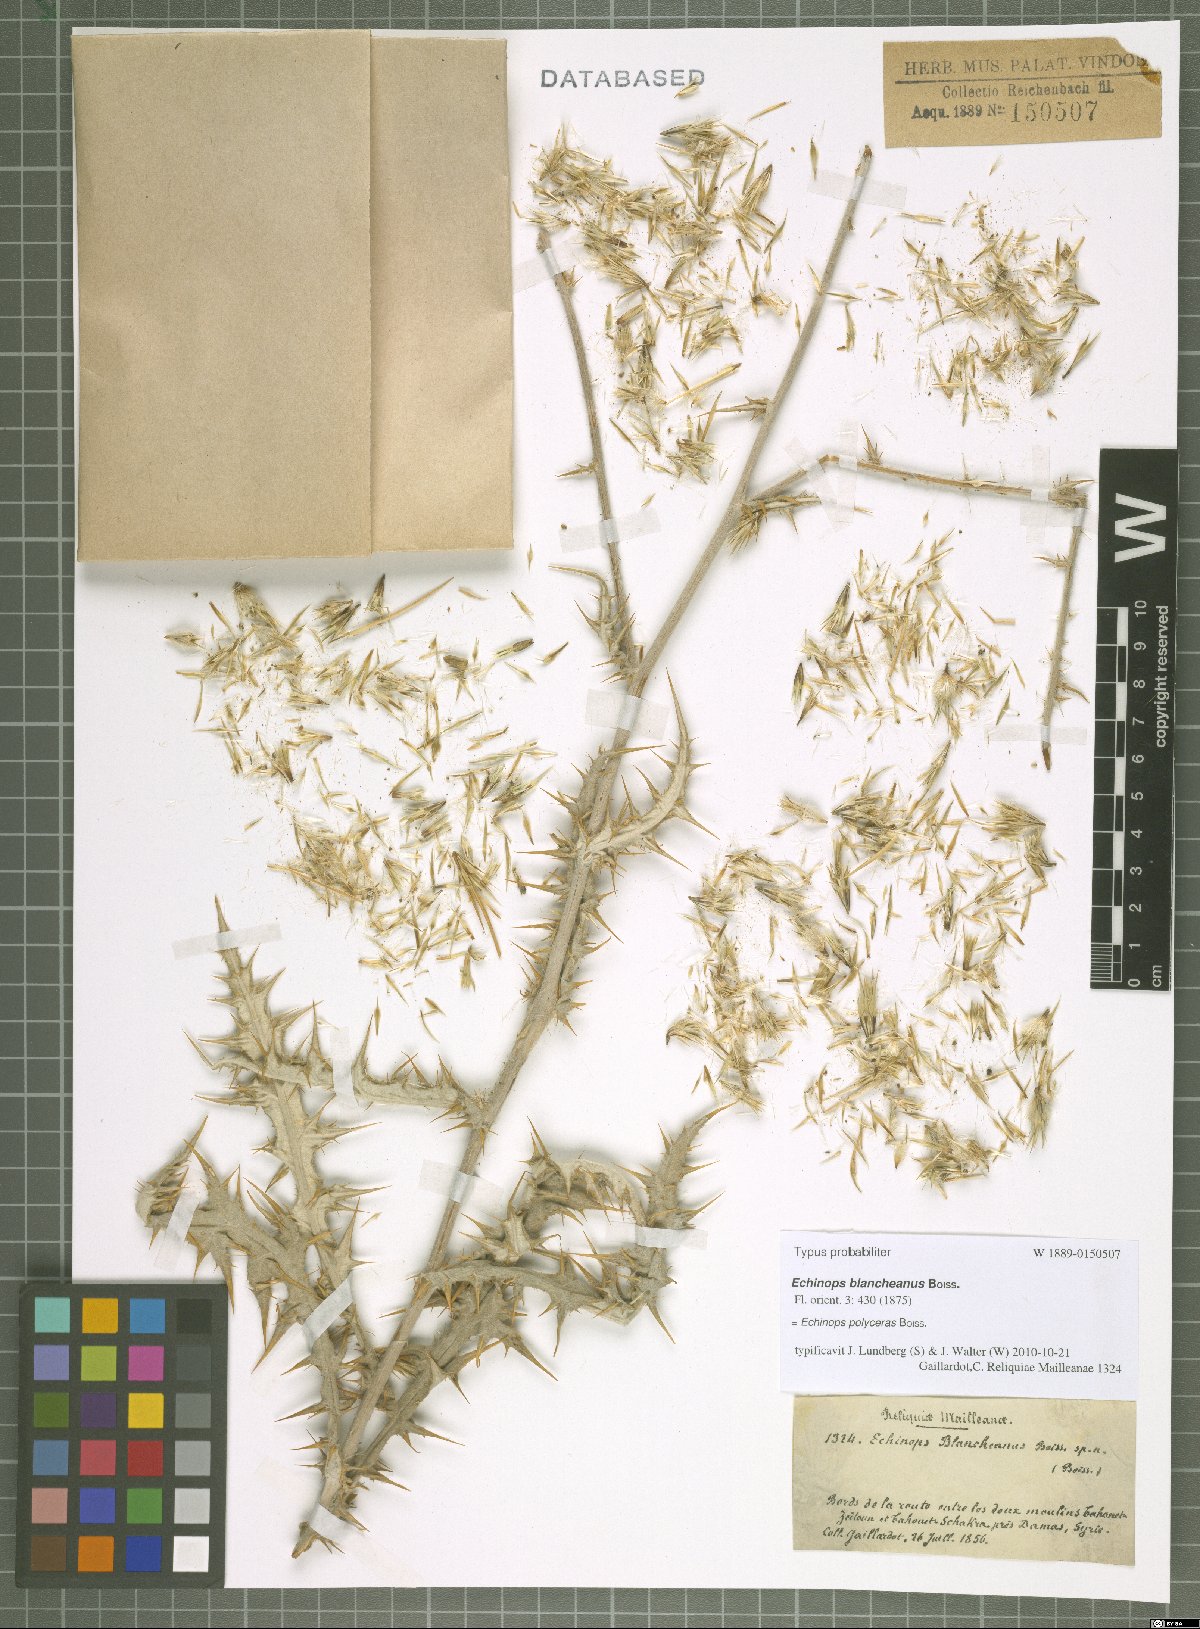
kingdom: Plantae
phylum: Tracheophyta
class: Magnoliopsida
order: Asterales
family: Asteraceae
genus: Echinops
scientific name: Echinops polyceras
